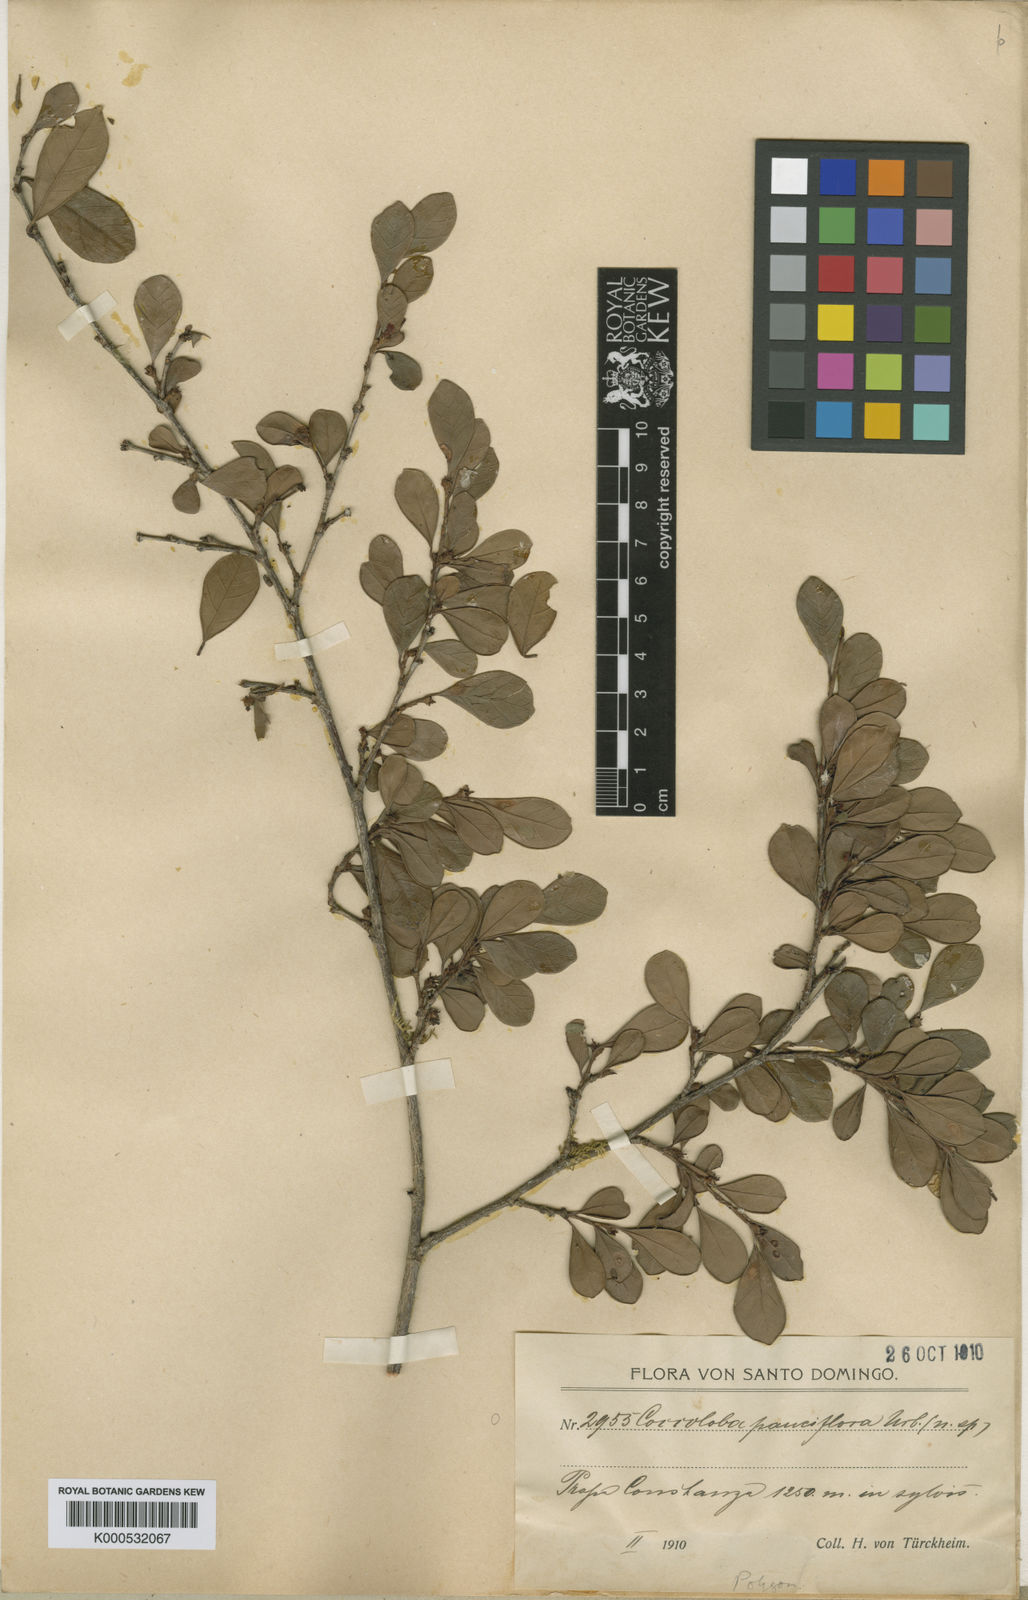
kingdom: Plantae
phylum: Tracheophyta
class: Magnoliopsida
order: Caryophyllales
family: Polygonaceae
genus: Coccoloba
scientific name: Coccoloba pauciflora
